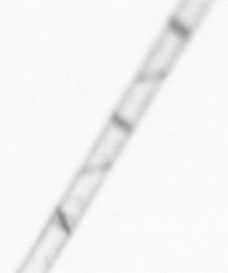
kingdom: Chromista
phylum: Ochrophyta
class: Bacillariophyceae
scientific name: Bacillariophyceae
